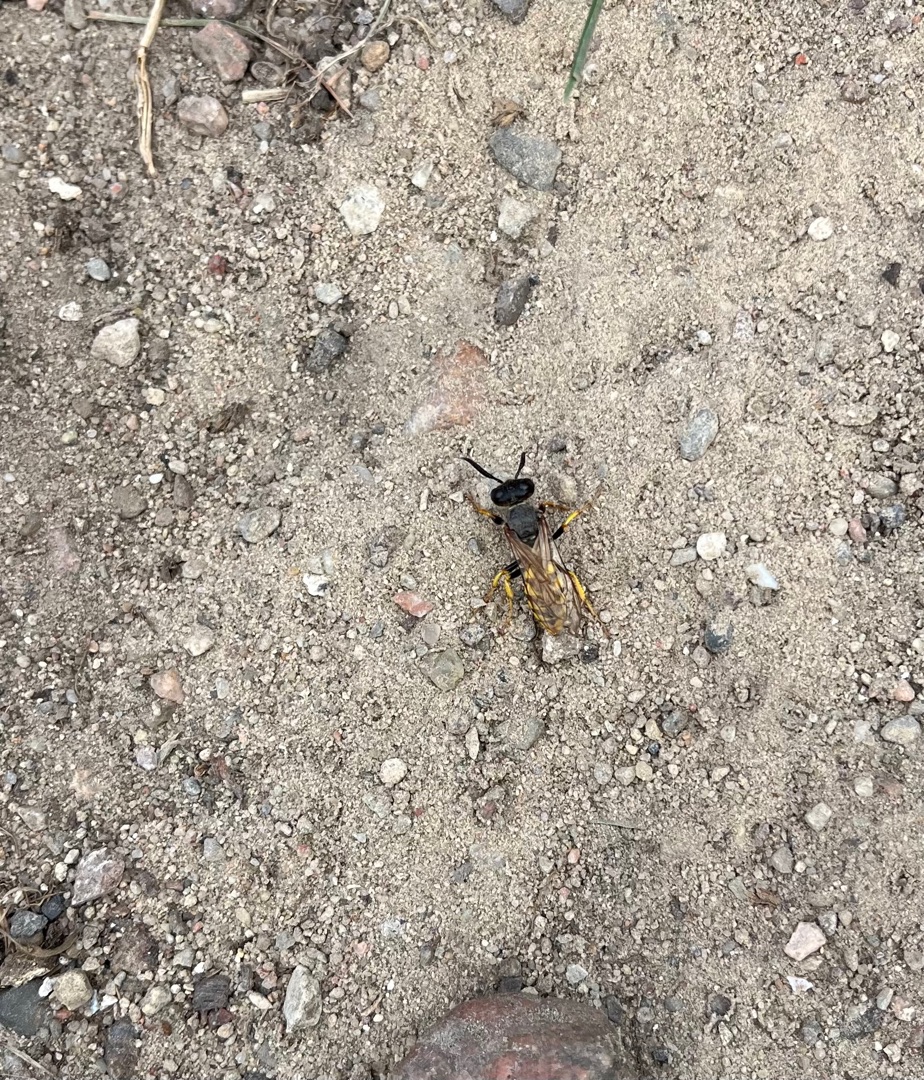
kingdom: Animalia
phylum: Arthropoda
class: Insecta
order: Hymenoptera
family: Crabronidae
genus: Philanthus
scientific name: Philanthus triangulum
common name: Biulv
